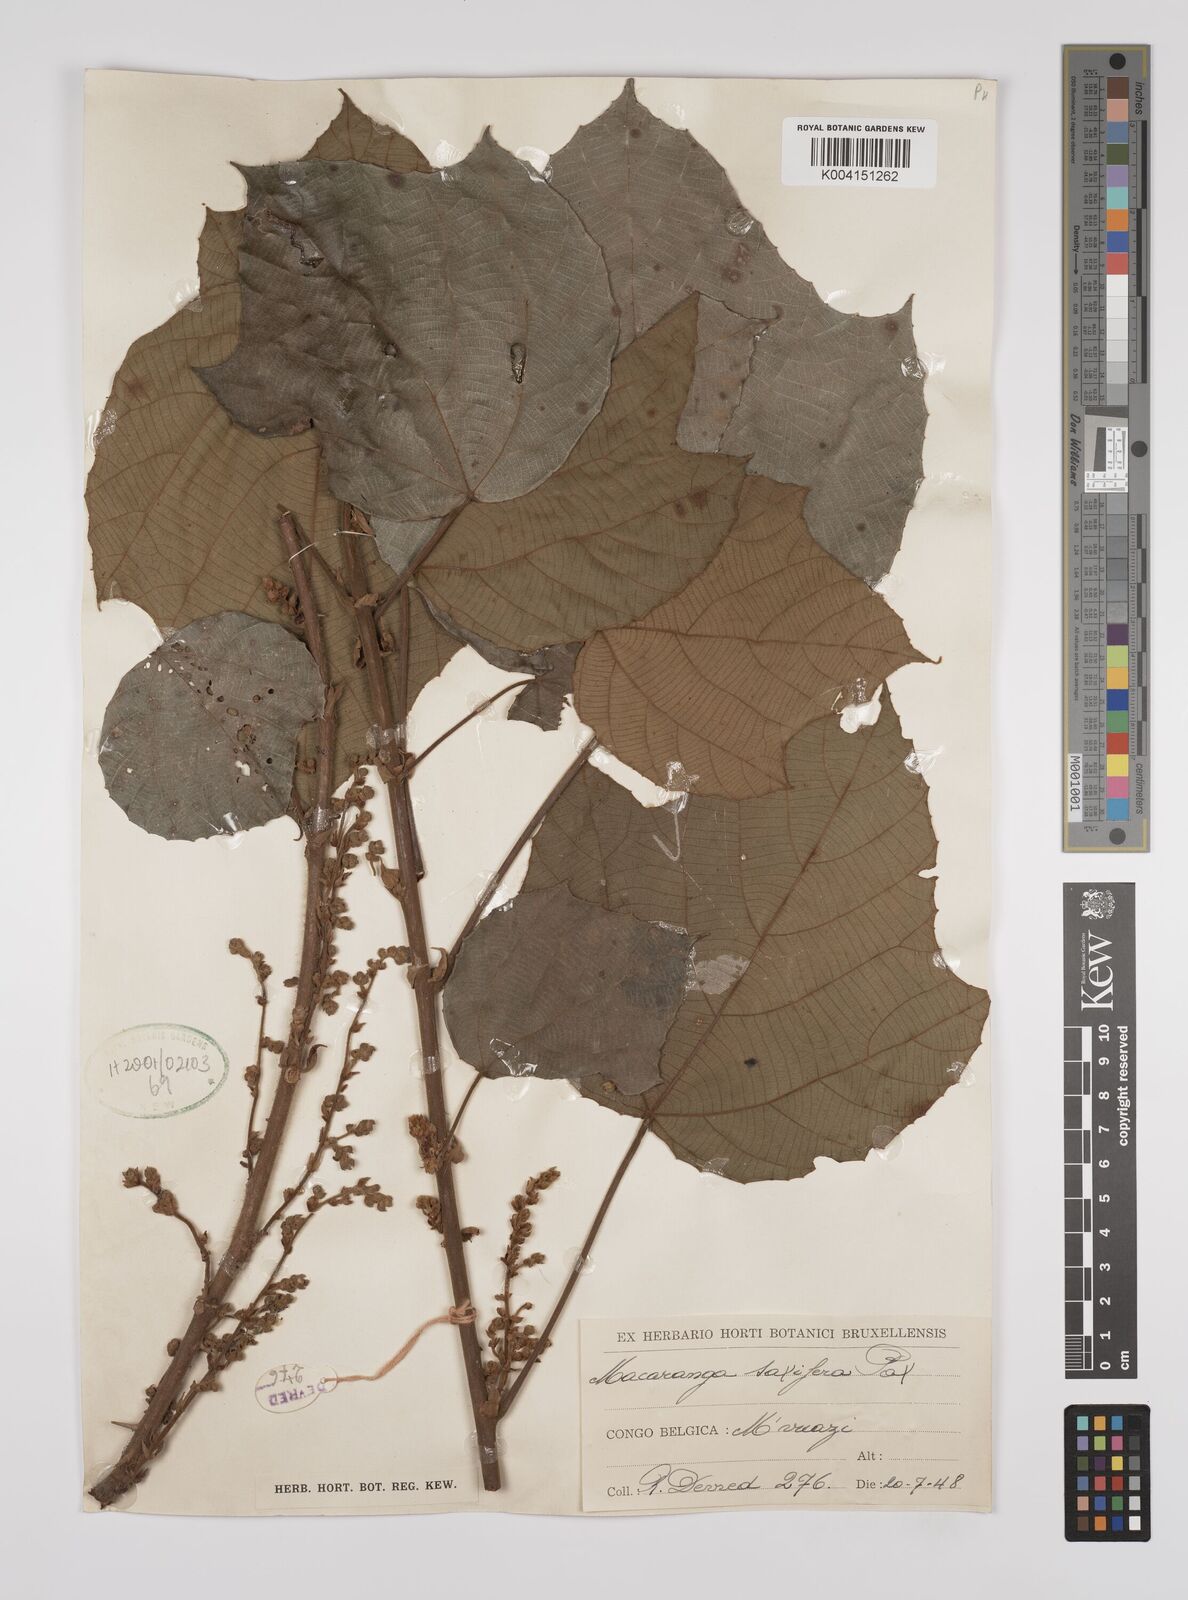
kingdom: Plantae
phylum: Tracheophyta
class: Magnoliopsida
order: Malpighiales
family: Euphorbiaceae
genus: Macaranga
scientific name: Macaranga saccifera
